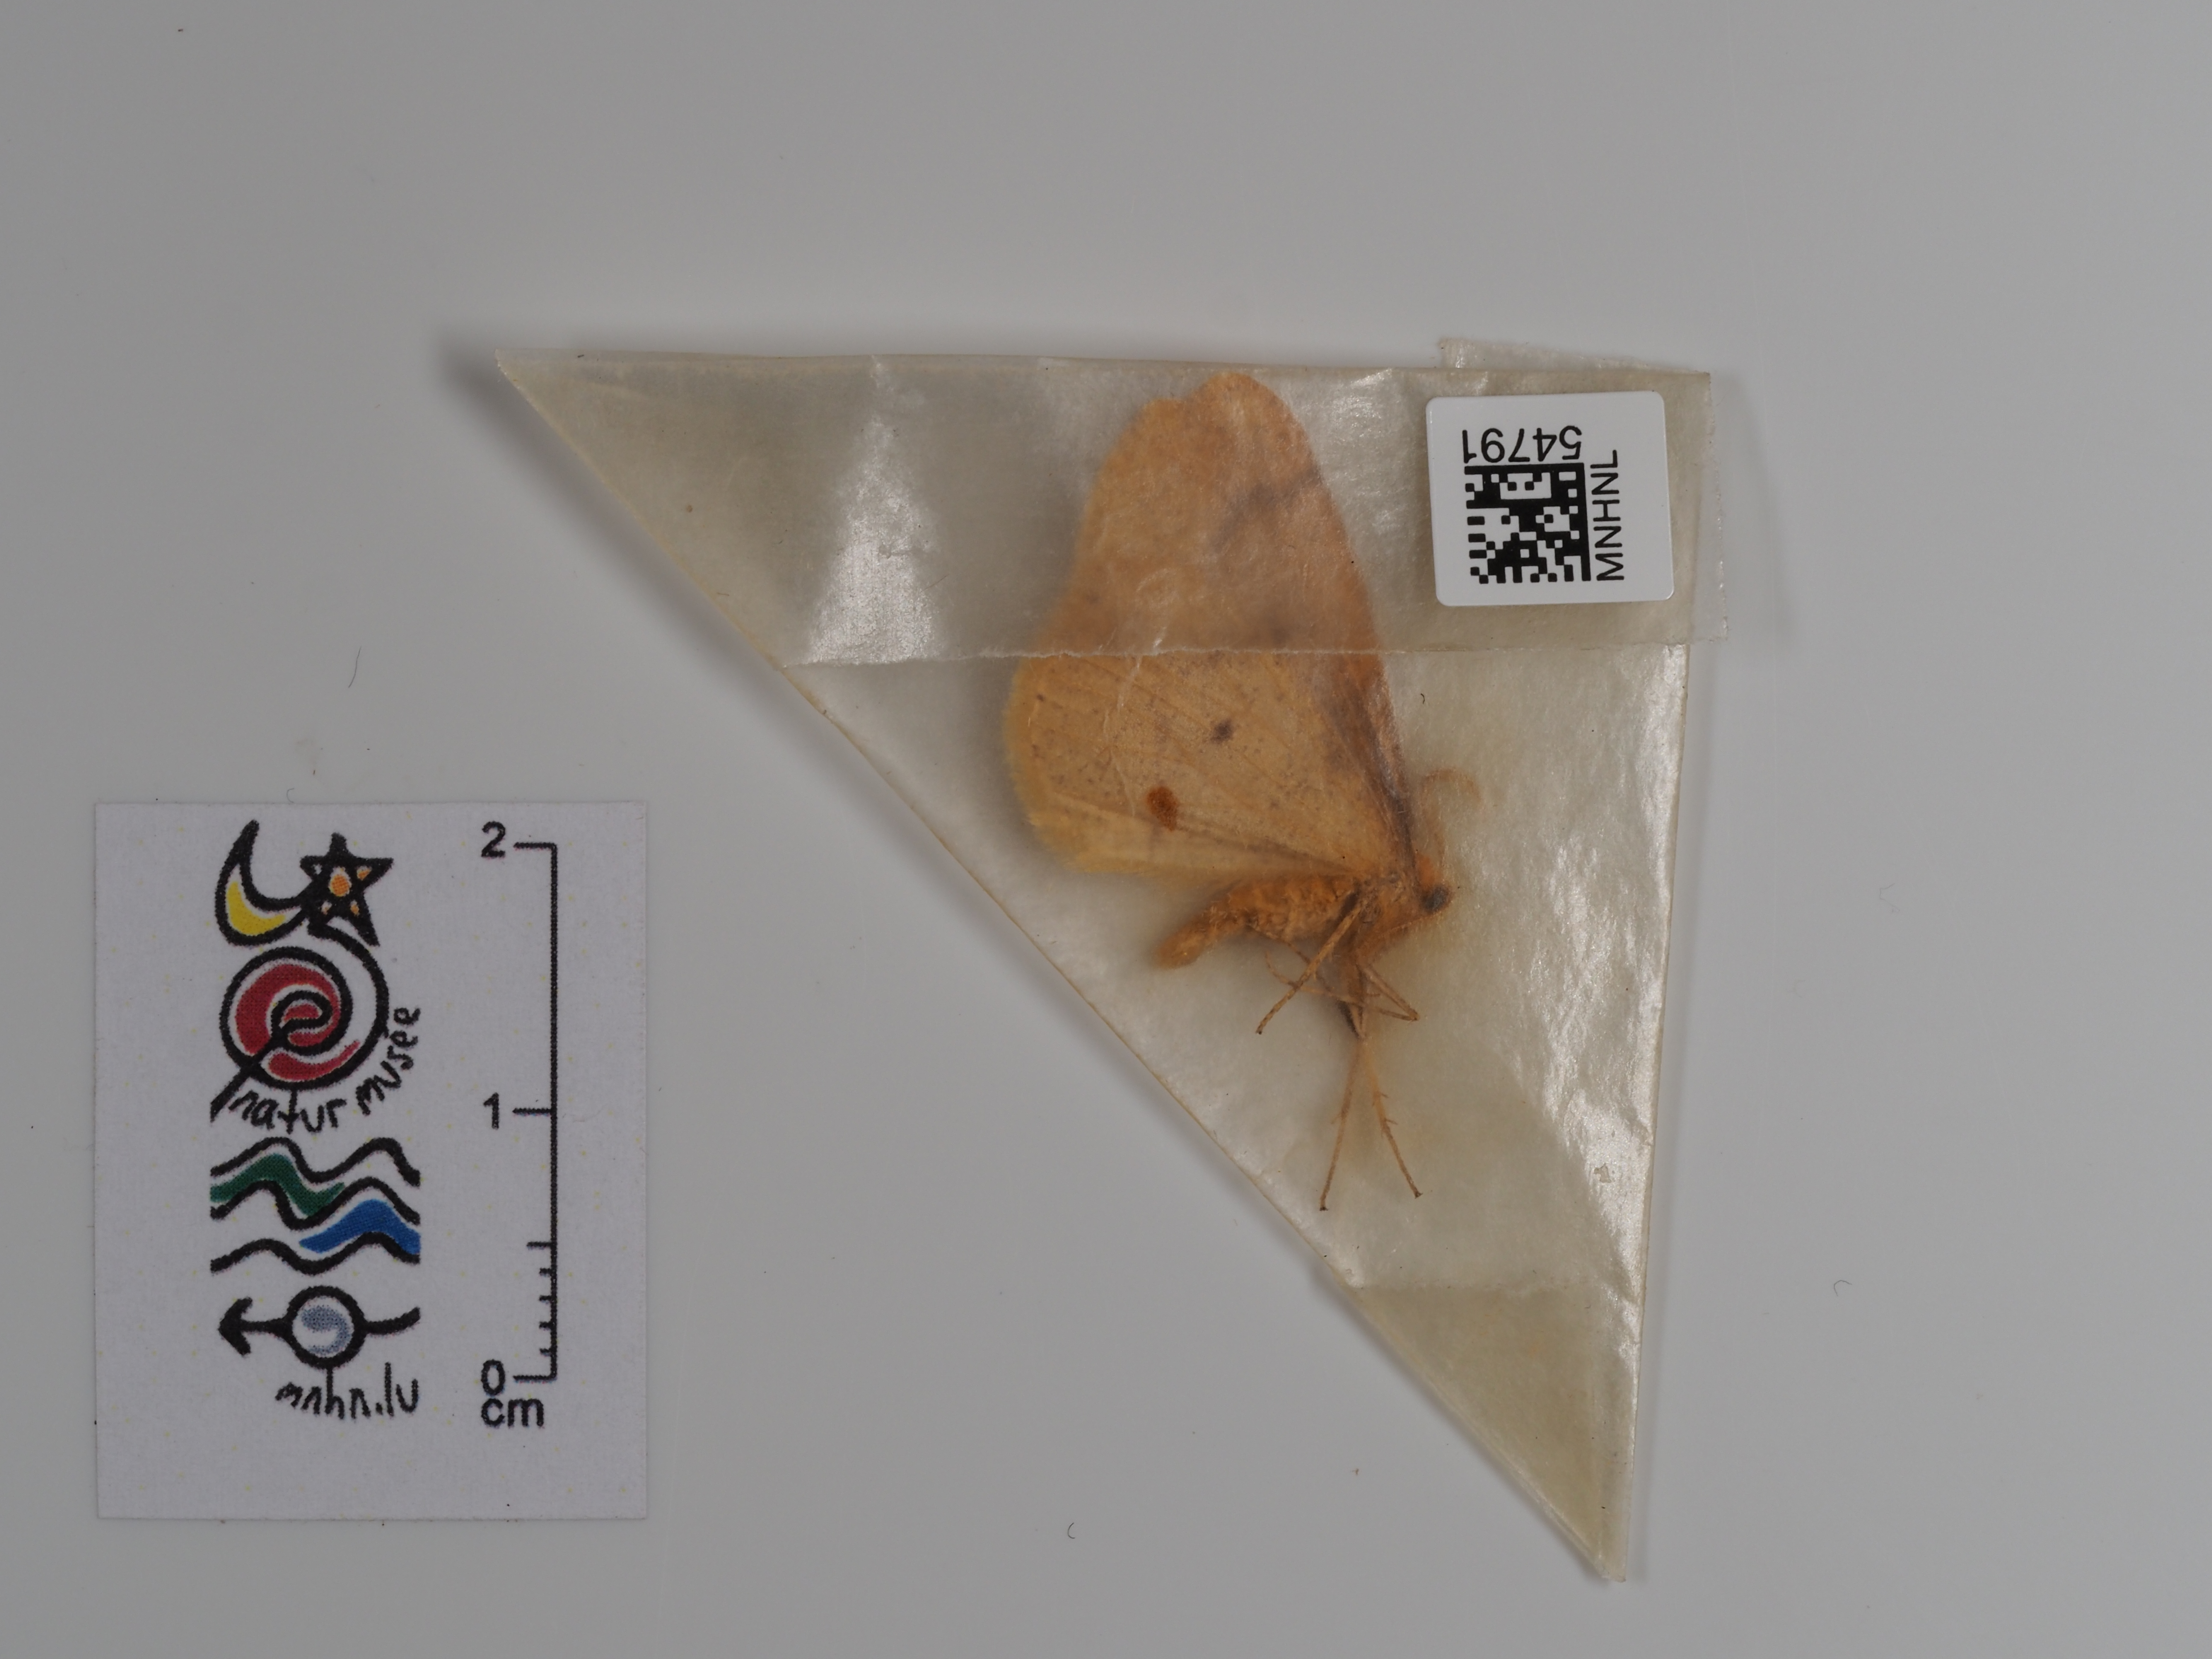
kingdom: Animalia
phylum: Arthropoda
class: Insecta
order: Lepidoptera
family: Geometridae
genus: Agriopis
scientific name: Agriopis aurantiaria
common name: Scarce umber
